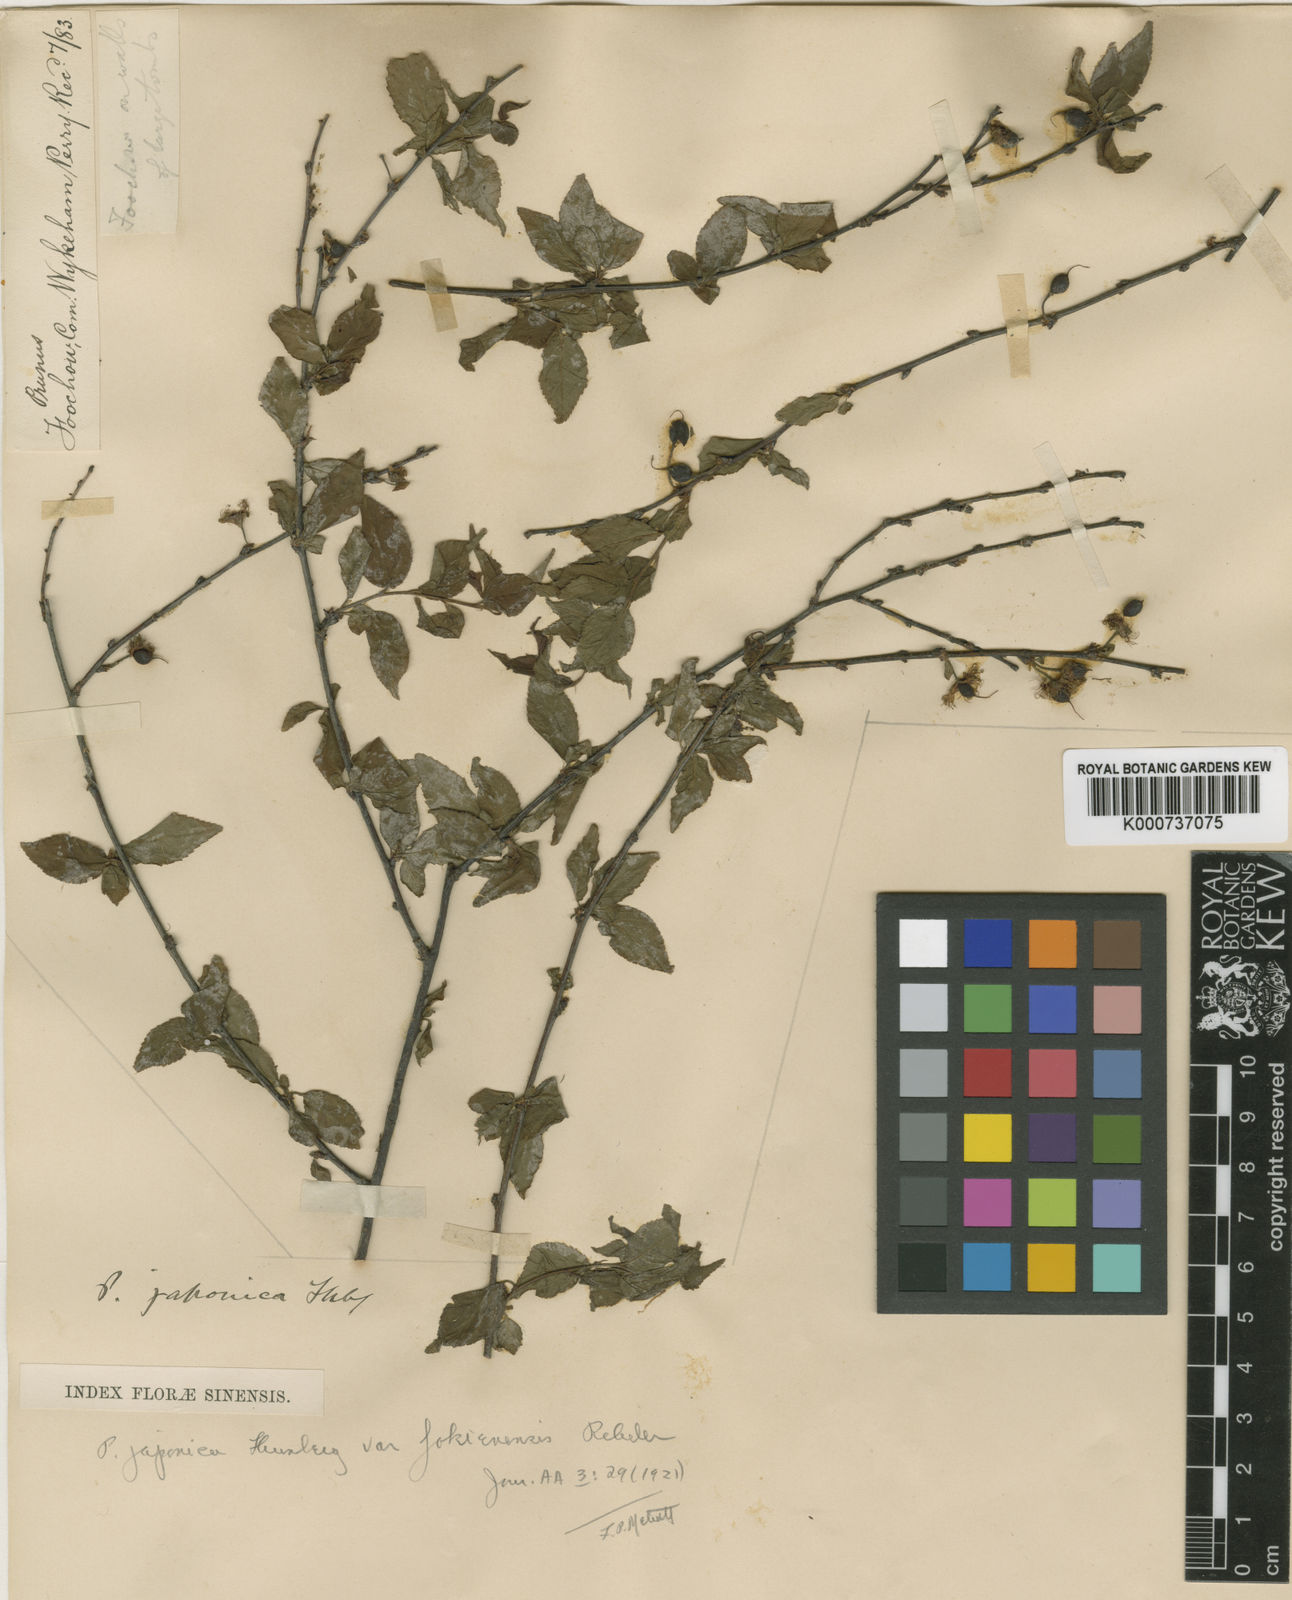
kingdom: Plantae
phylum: Tracheophyta
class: Magnoliopsida
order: Rosales
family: Rosaceae
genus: Prunus
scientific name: Prunus japonica
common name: Chinese bush cherry
